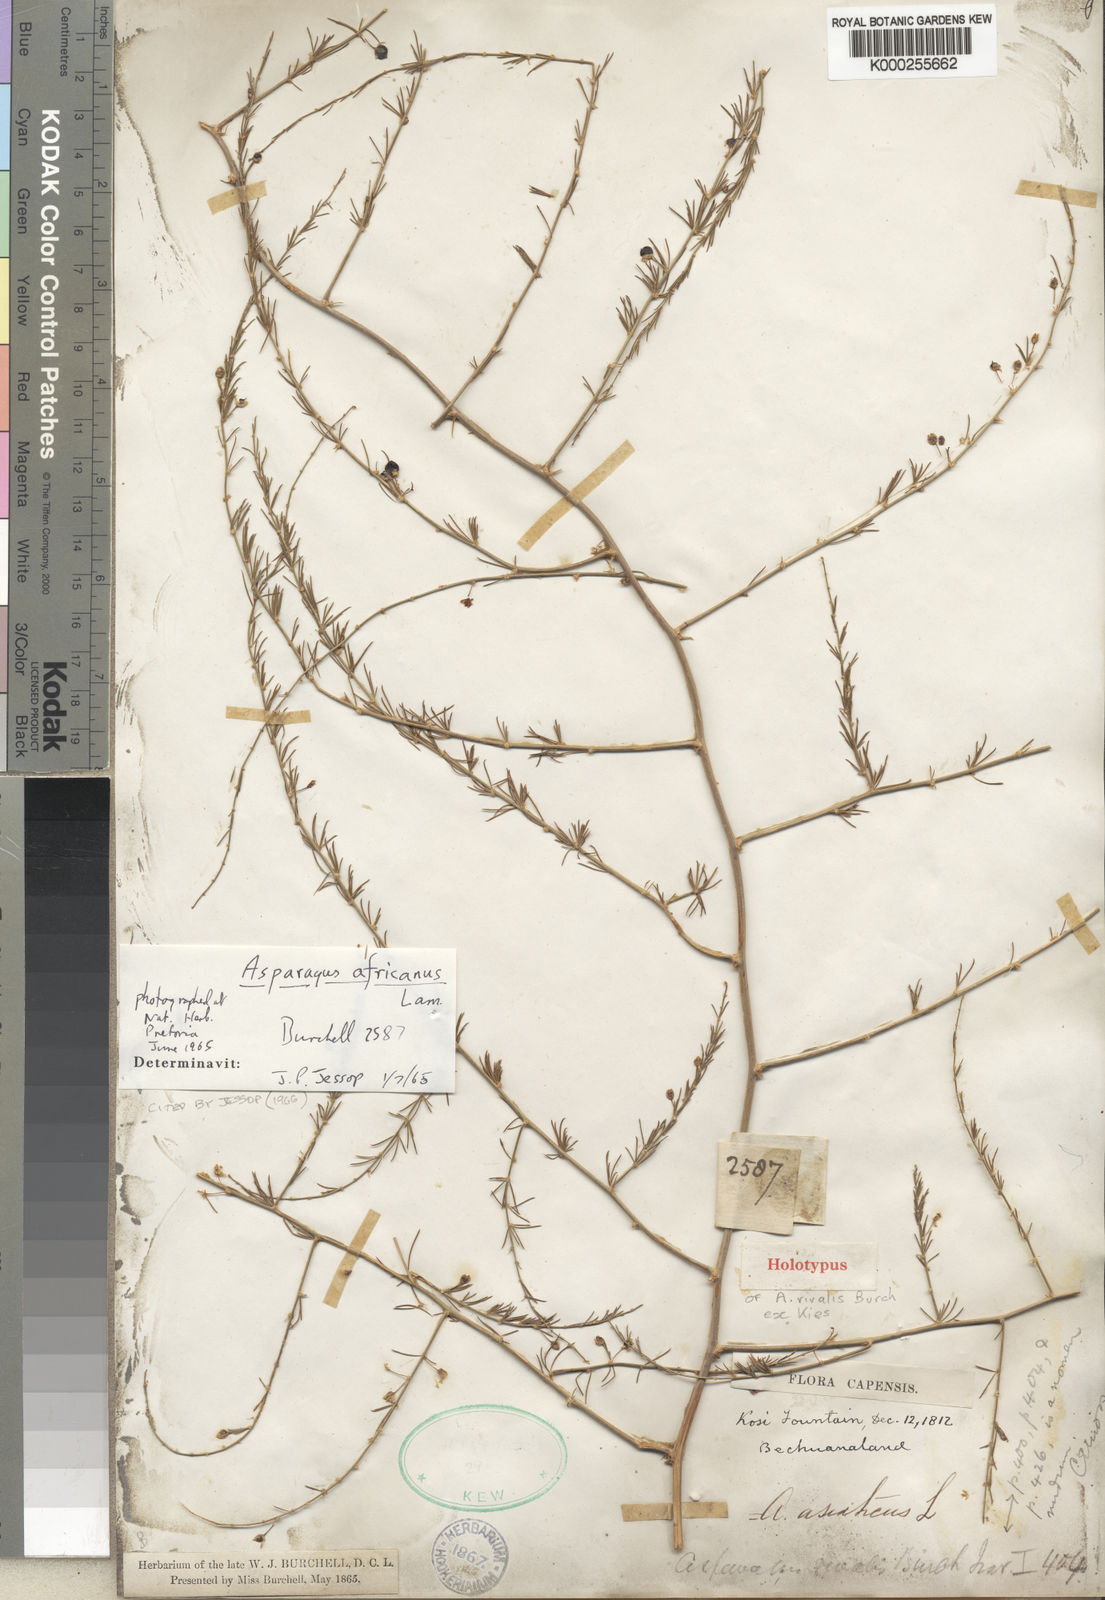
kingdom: Plantae
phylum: Tracheophyta
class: Liliopsida
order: Asparagales
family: Asparagaceae
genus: Asparagus
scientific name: Asparagus africanus
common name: Asparagus-fern
